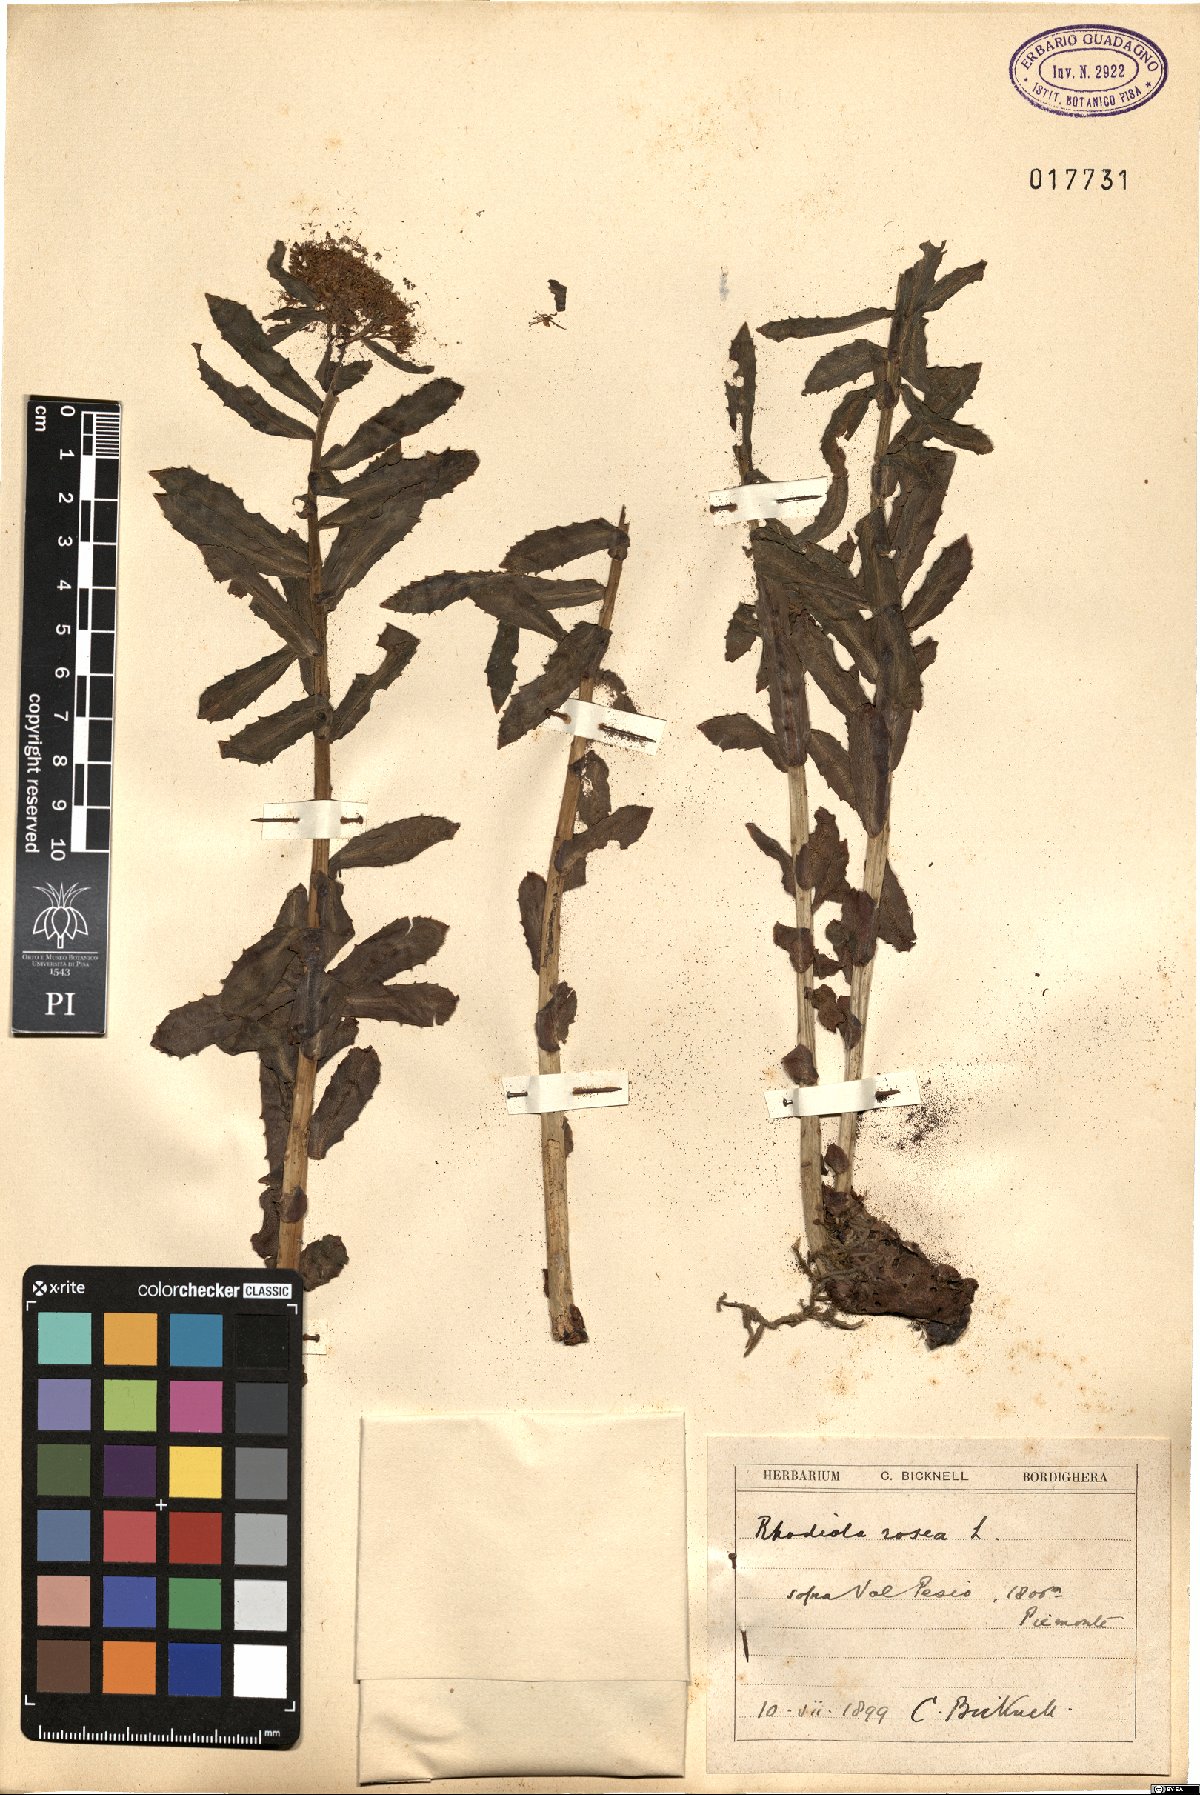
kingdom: Plantae
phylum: Tracheophyta
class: Magnoliopsida
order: Saxifragales
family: Crassulaceae
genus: Rhodiola
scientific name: Rhodiola rosea
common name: Roseroot
